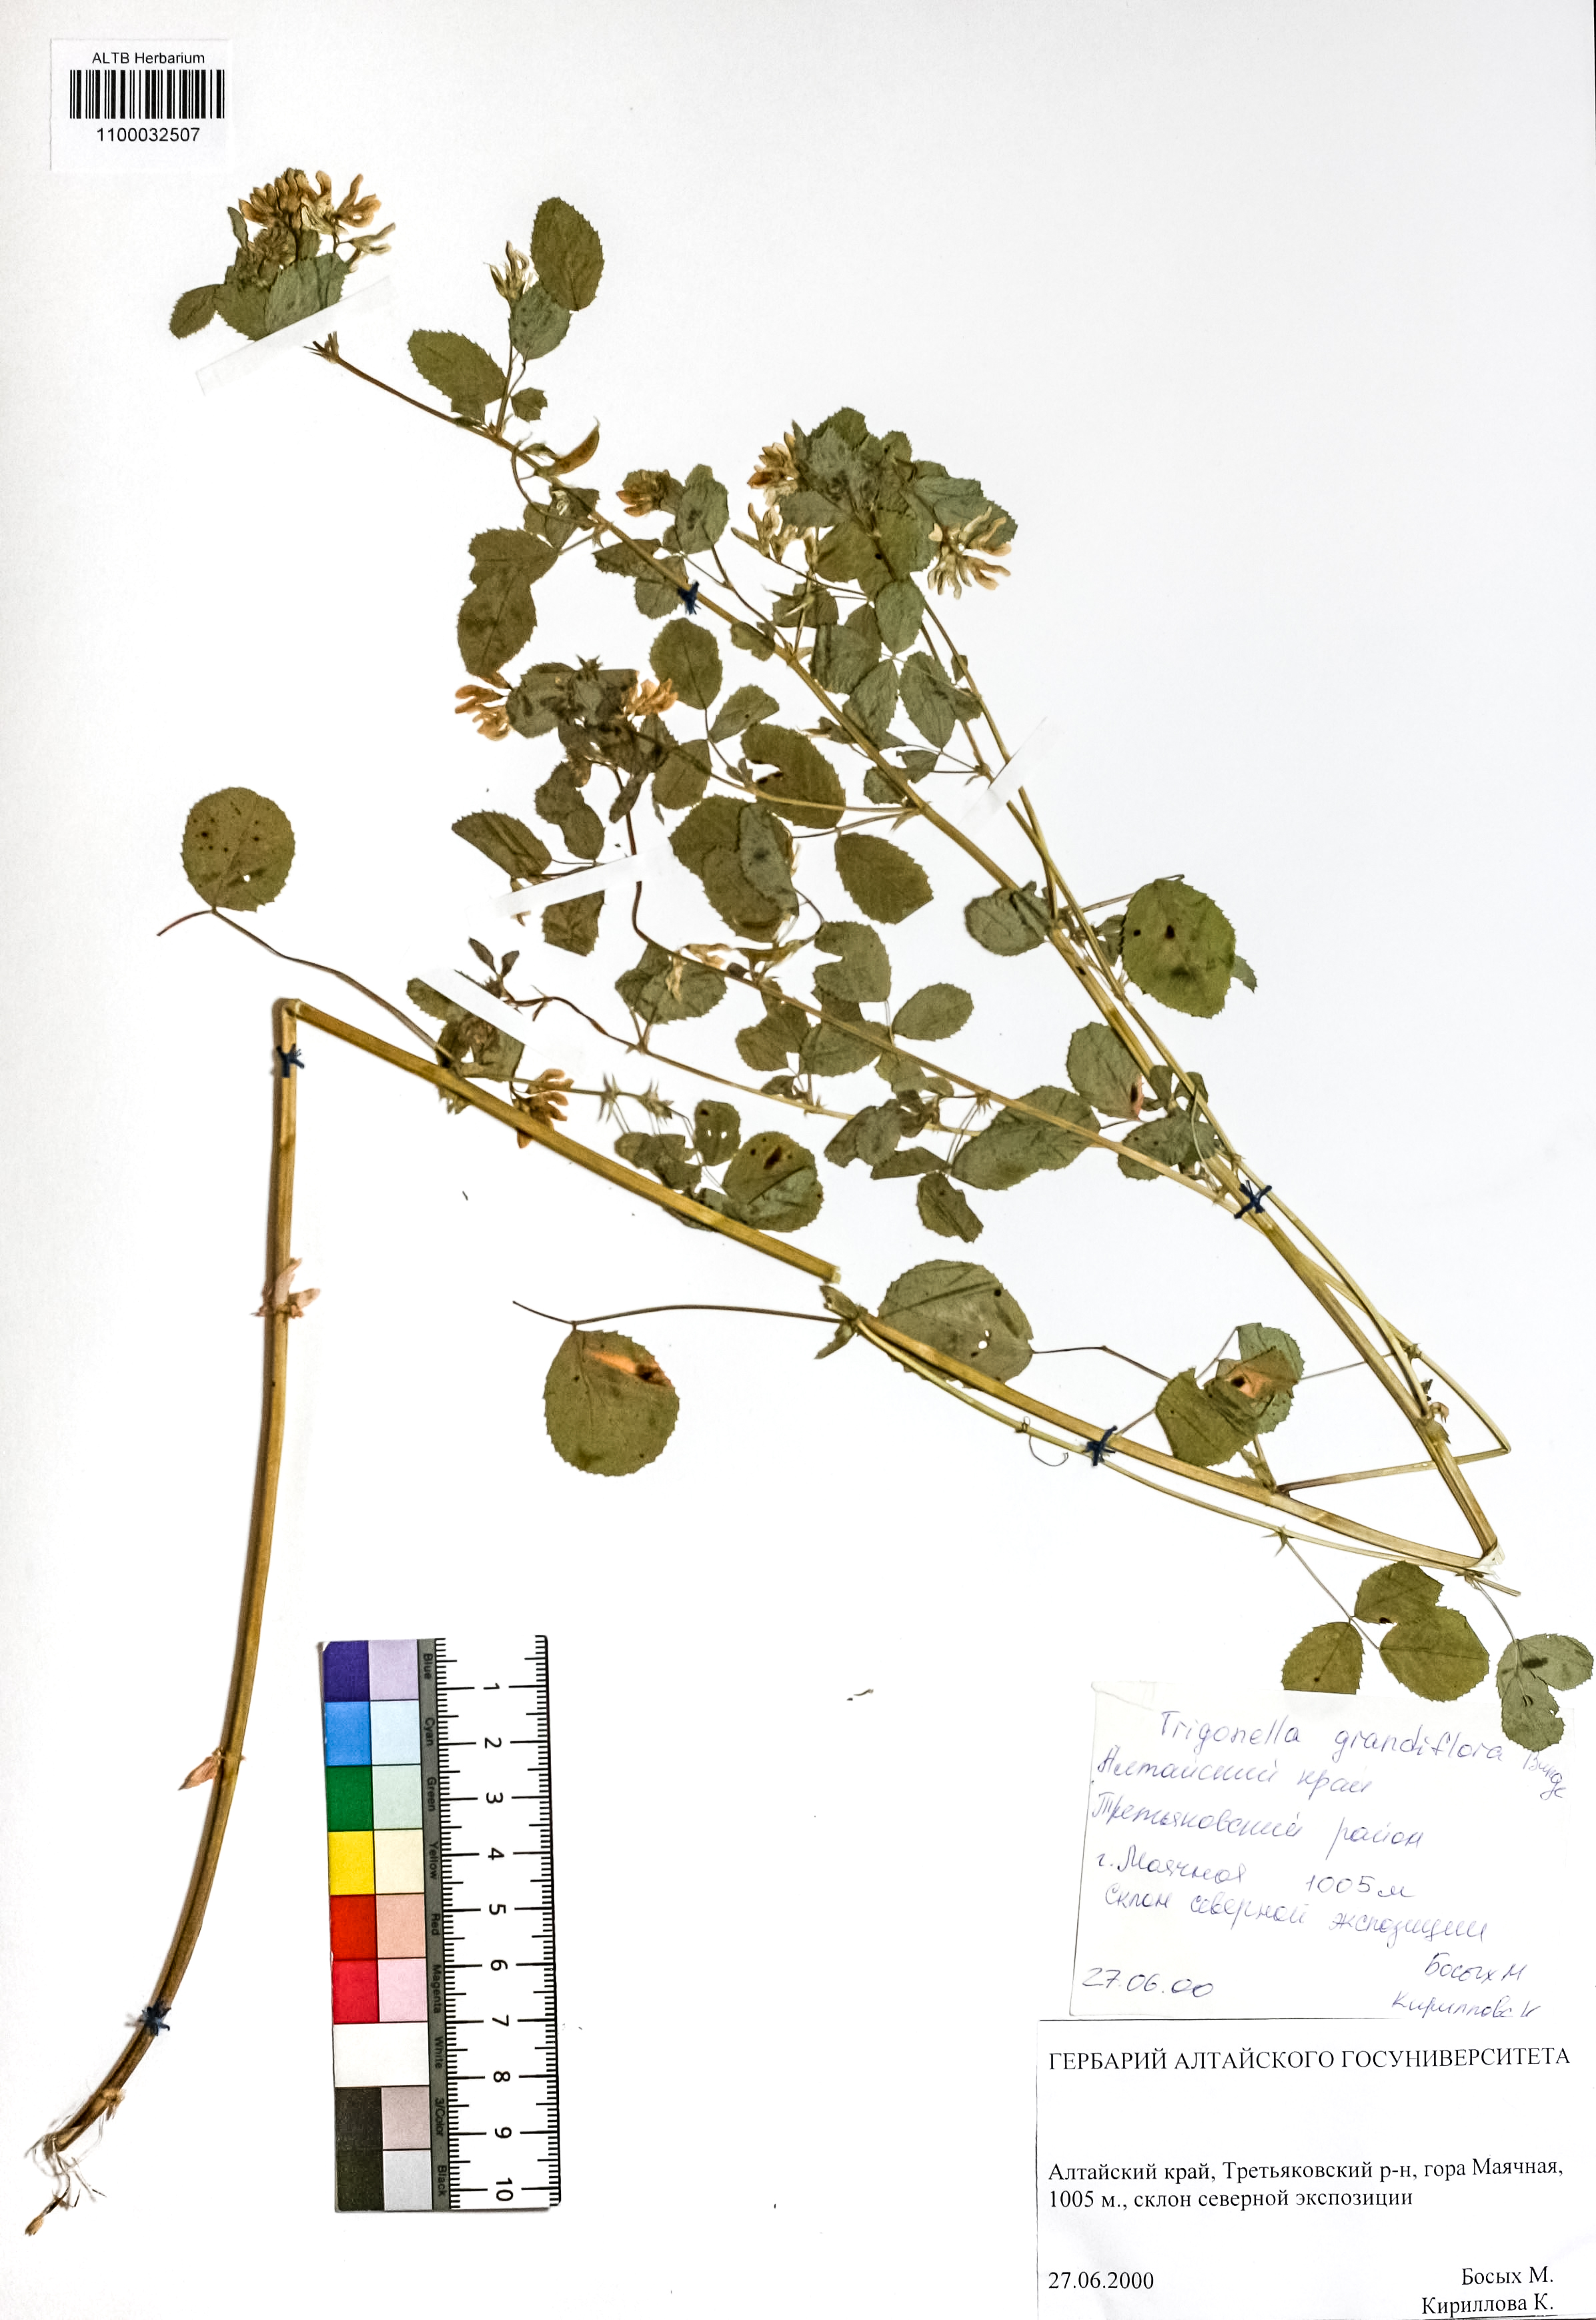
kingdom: Plantae
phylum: Tracheophyta
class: Magnoliopsida
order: Fabales
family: Fabaceae
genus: Trigonella
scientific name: Trigonella grandiflora
